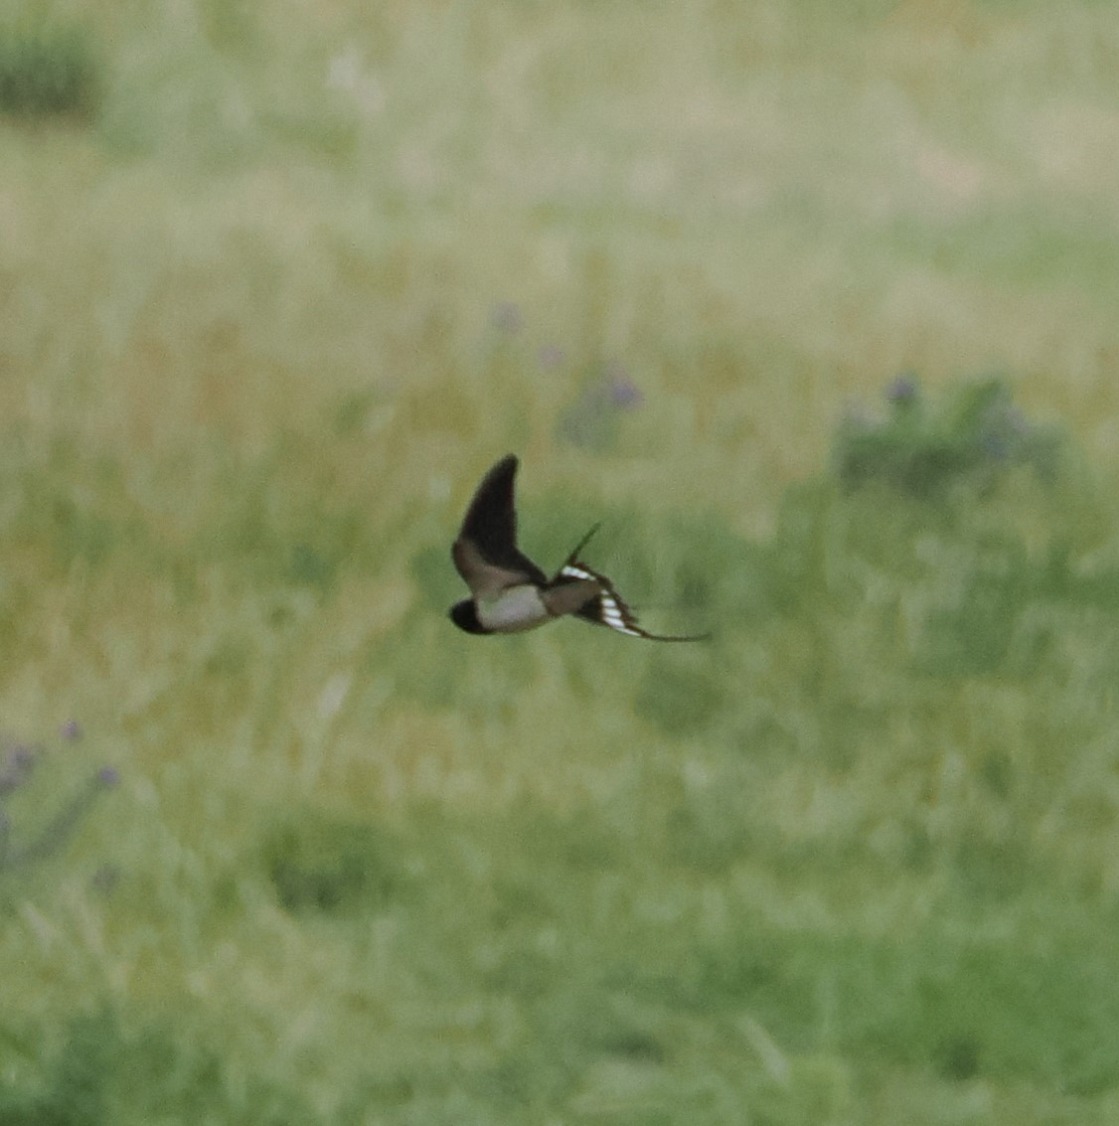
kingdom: Animalia
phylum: Chordata
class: Aves
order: Passeriformes
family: Hirundinidae
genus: Hirundo
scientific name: Hirundo rustica
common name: Landsvale
